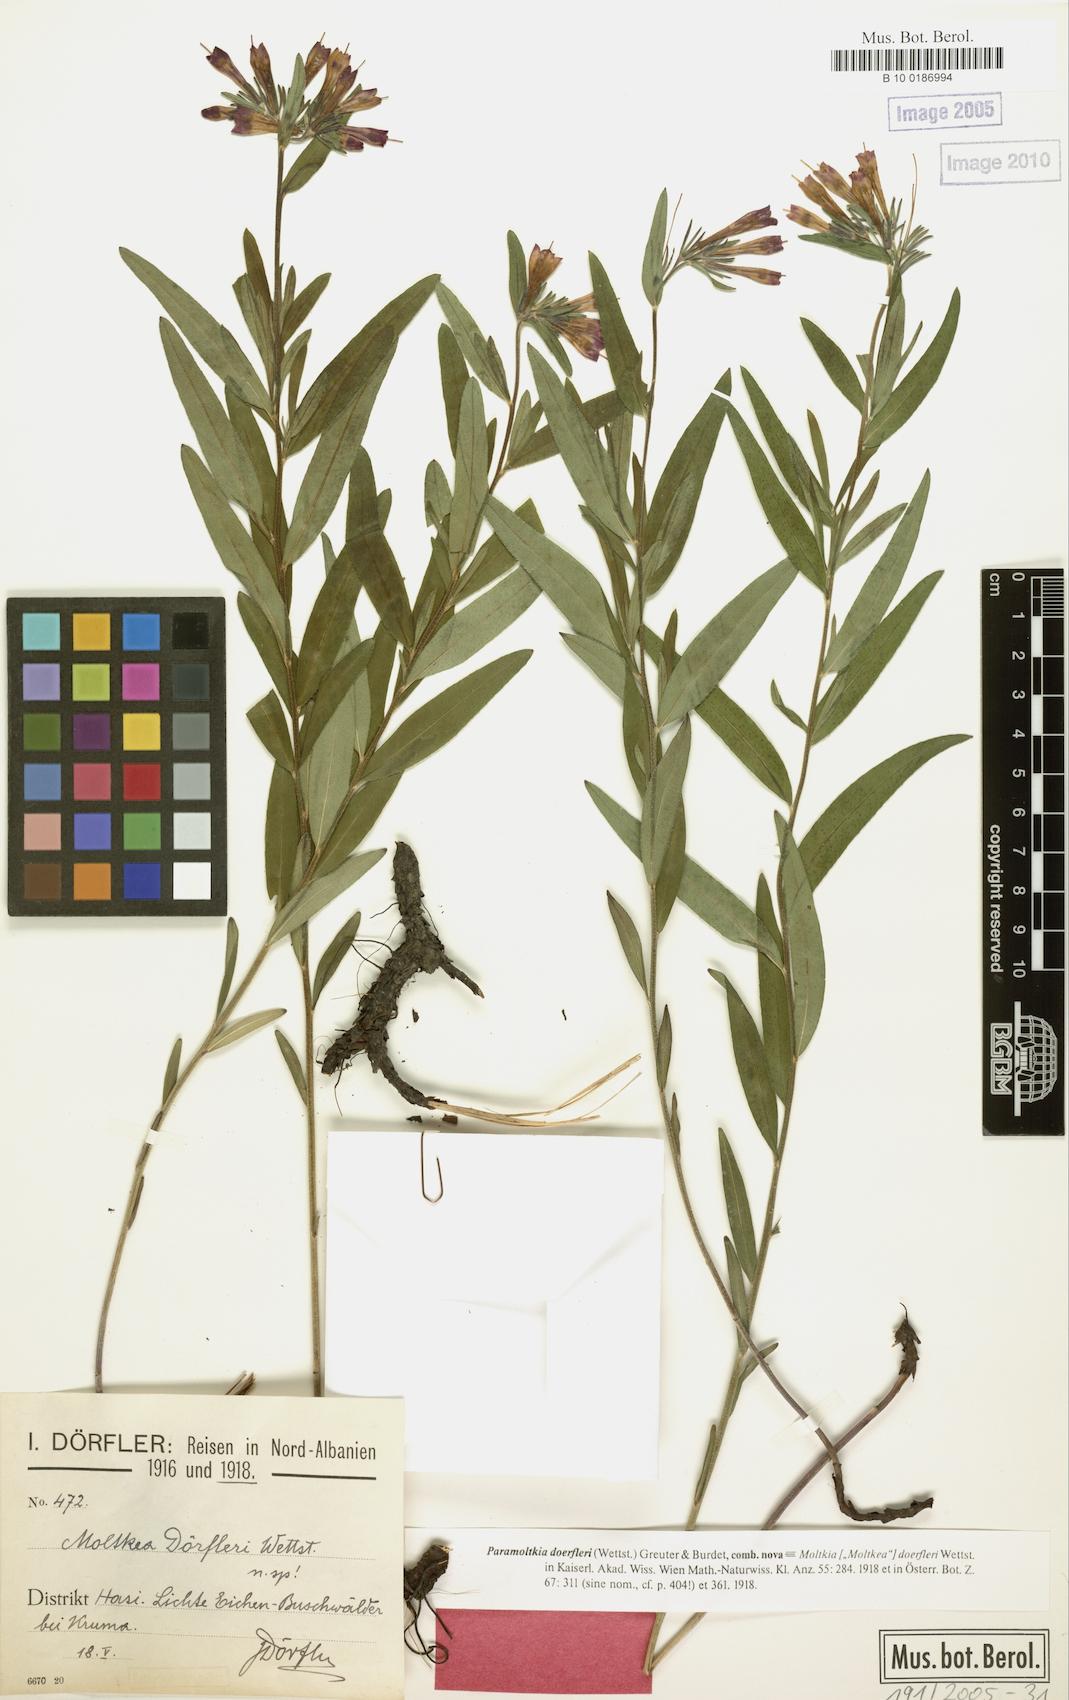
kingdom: Plantae
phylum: Tracheophyta
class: Magnoliopsida
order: Boraginales
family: Boraginaceae
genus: Paramoltkia
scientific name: Paramoltkia doerfleri
